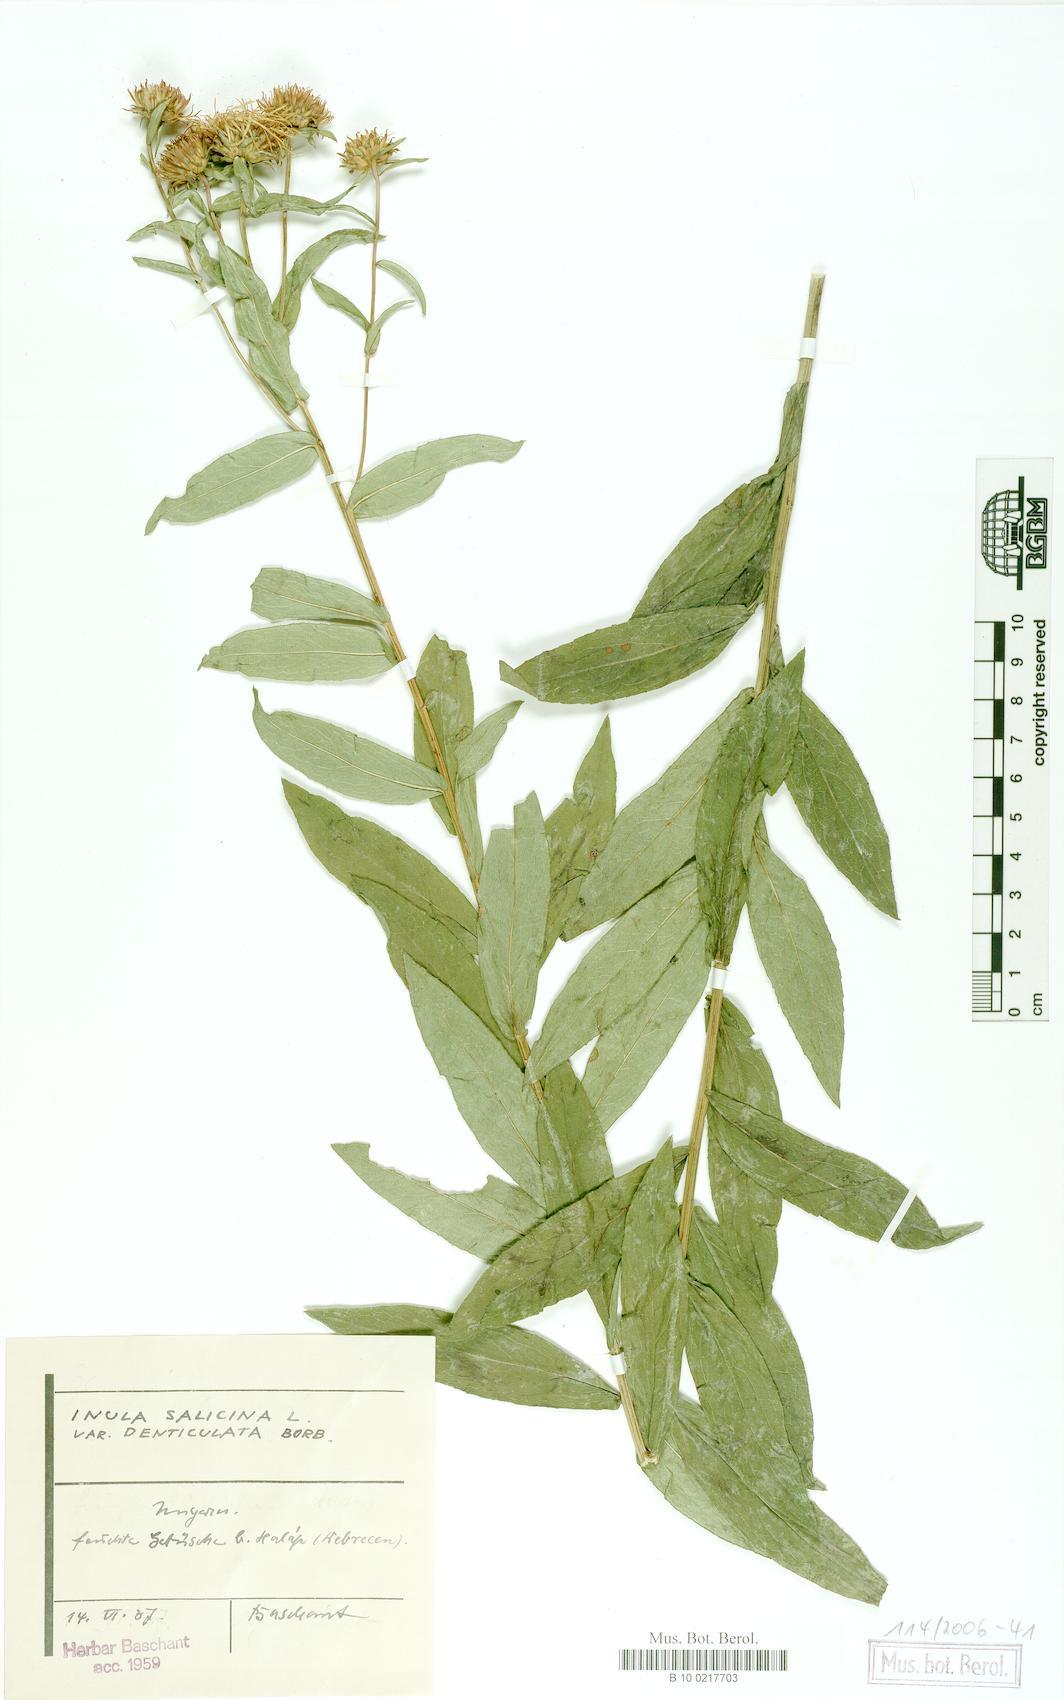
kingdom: Plantae
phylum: Tracheophyta
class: Magnoliopsida
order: Asterales
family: Asteraceae
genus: Pentanema
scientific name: Pentanema salicinum
